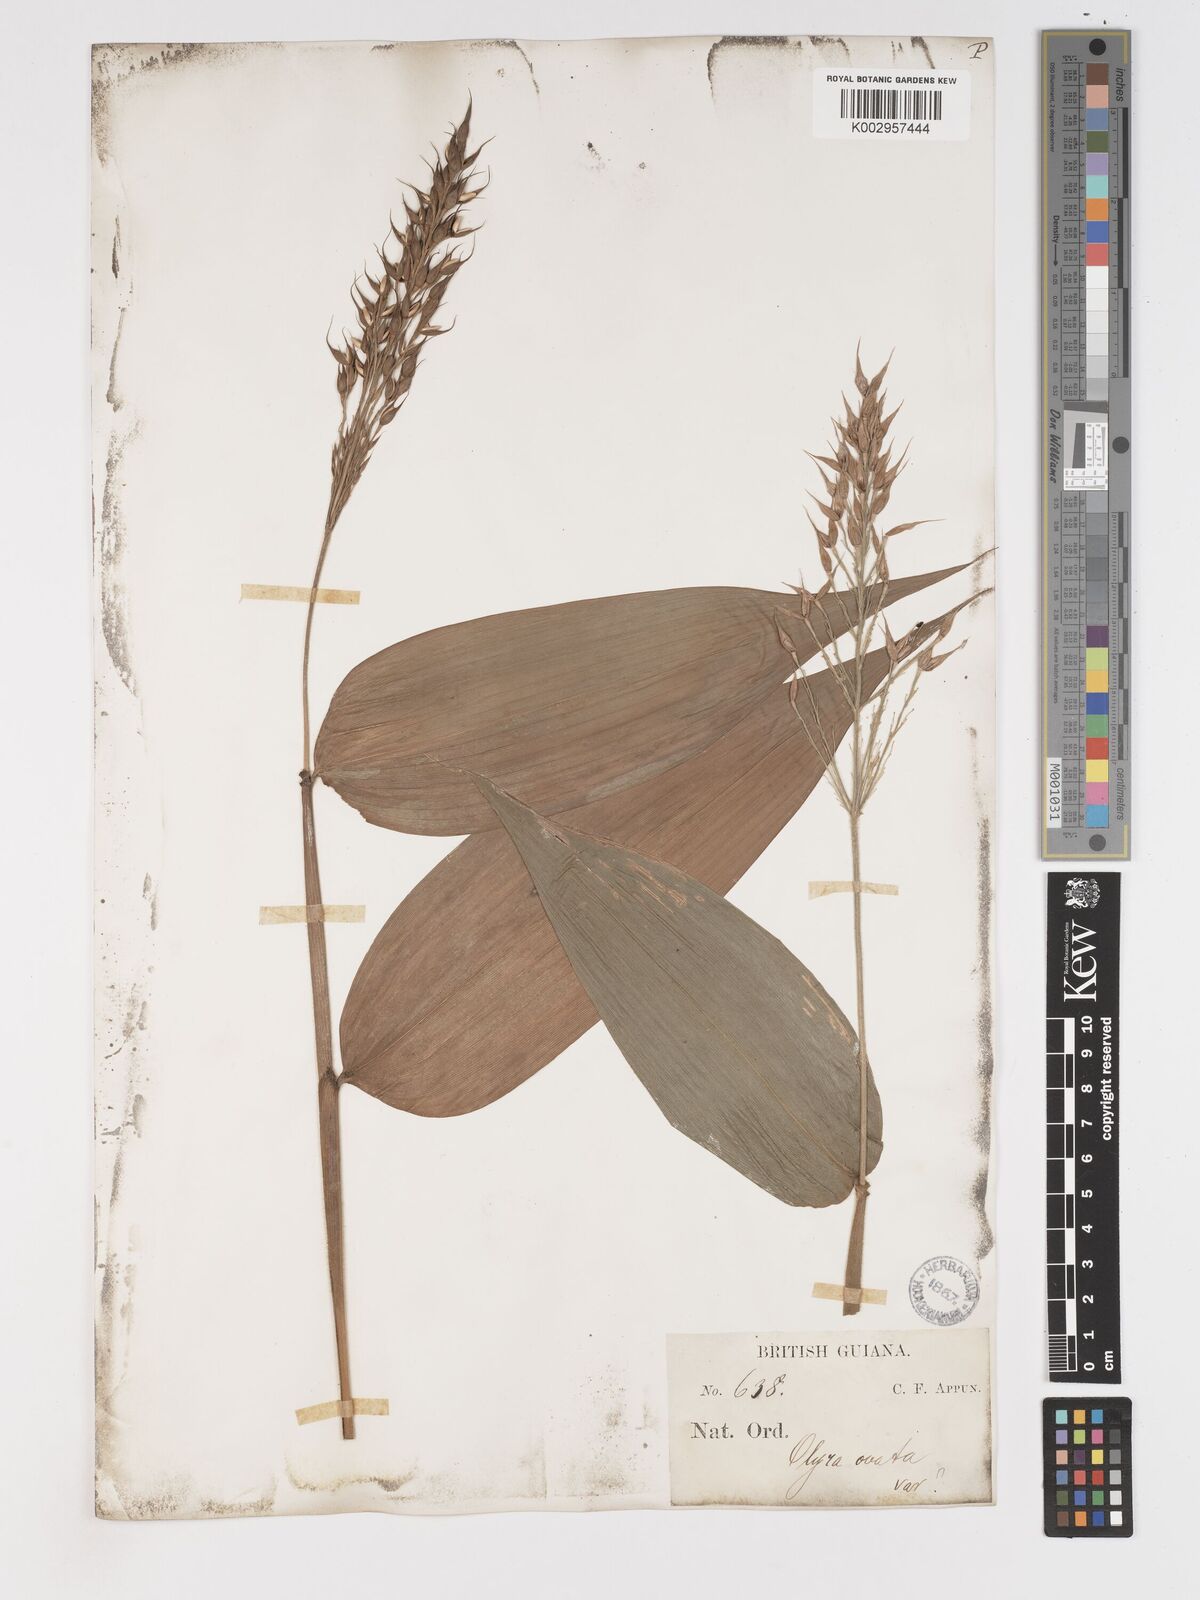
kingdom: Plantae
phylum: Tracheophyta
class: Liliopsida
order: Poales
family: Poaceae
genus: Olyra
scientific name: Olyra latifolia
